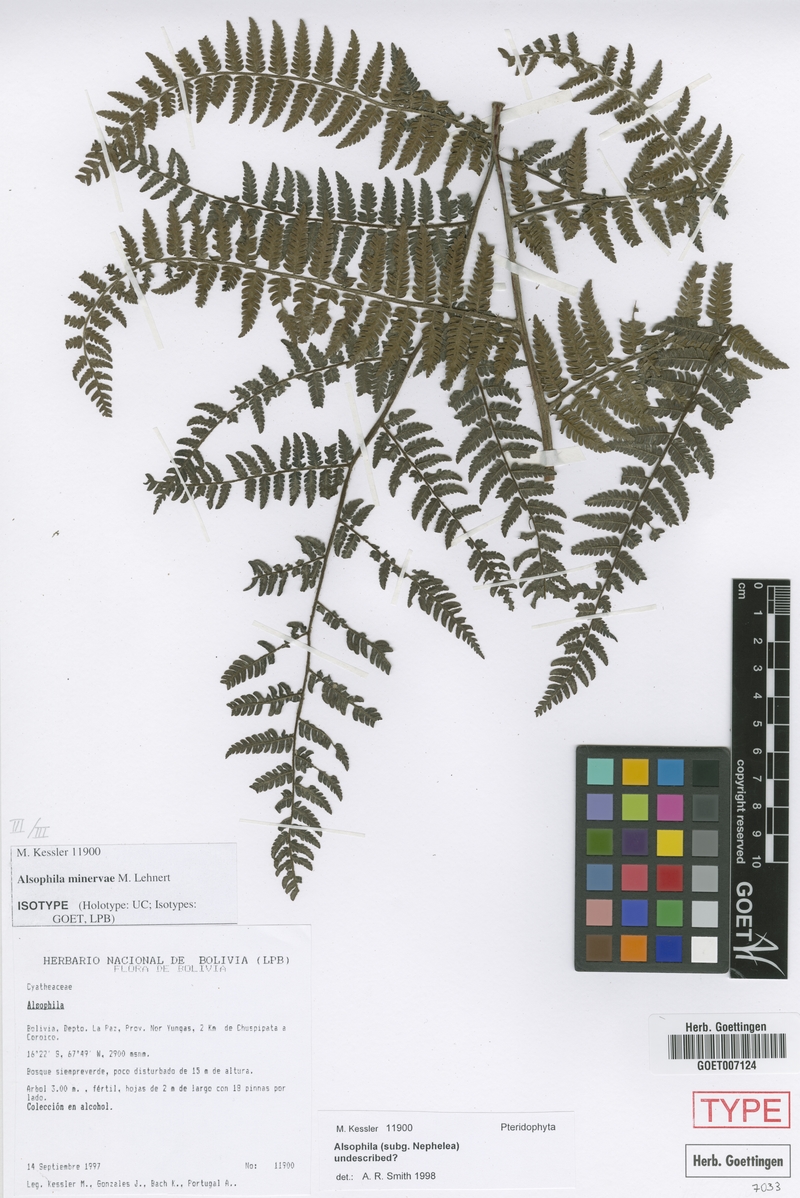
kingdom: Plantae
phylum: Tracheophyta
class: Polypodiopsida
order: Cyatheales
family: Cyatheaceae
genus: Alsophila
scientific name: Alsophila minervae
